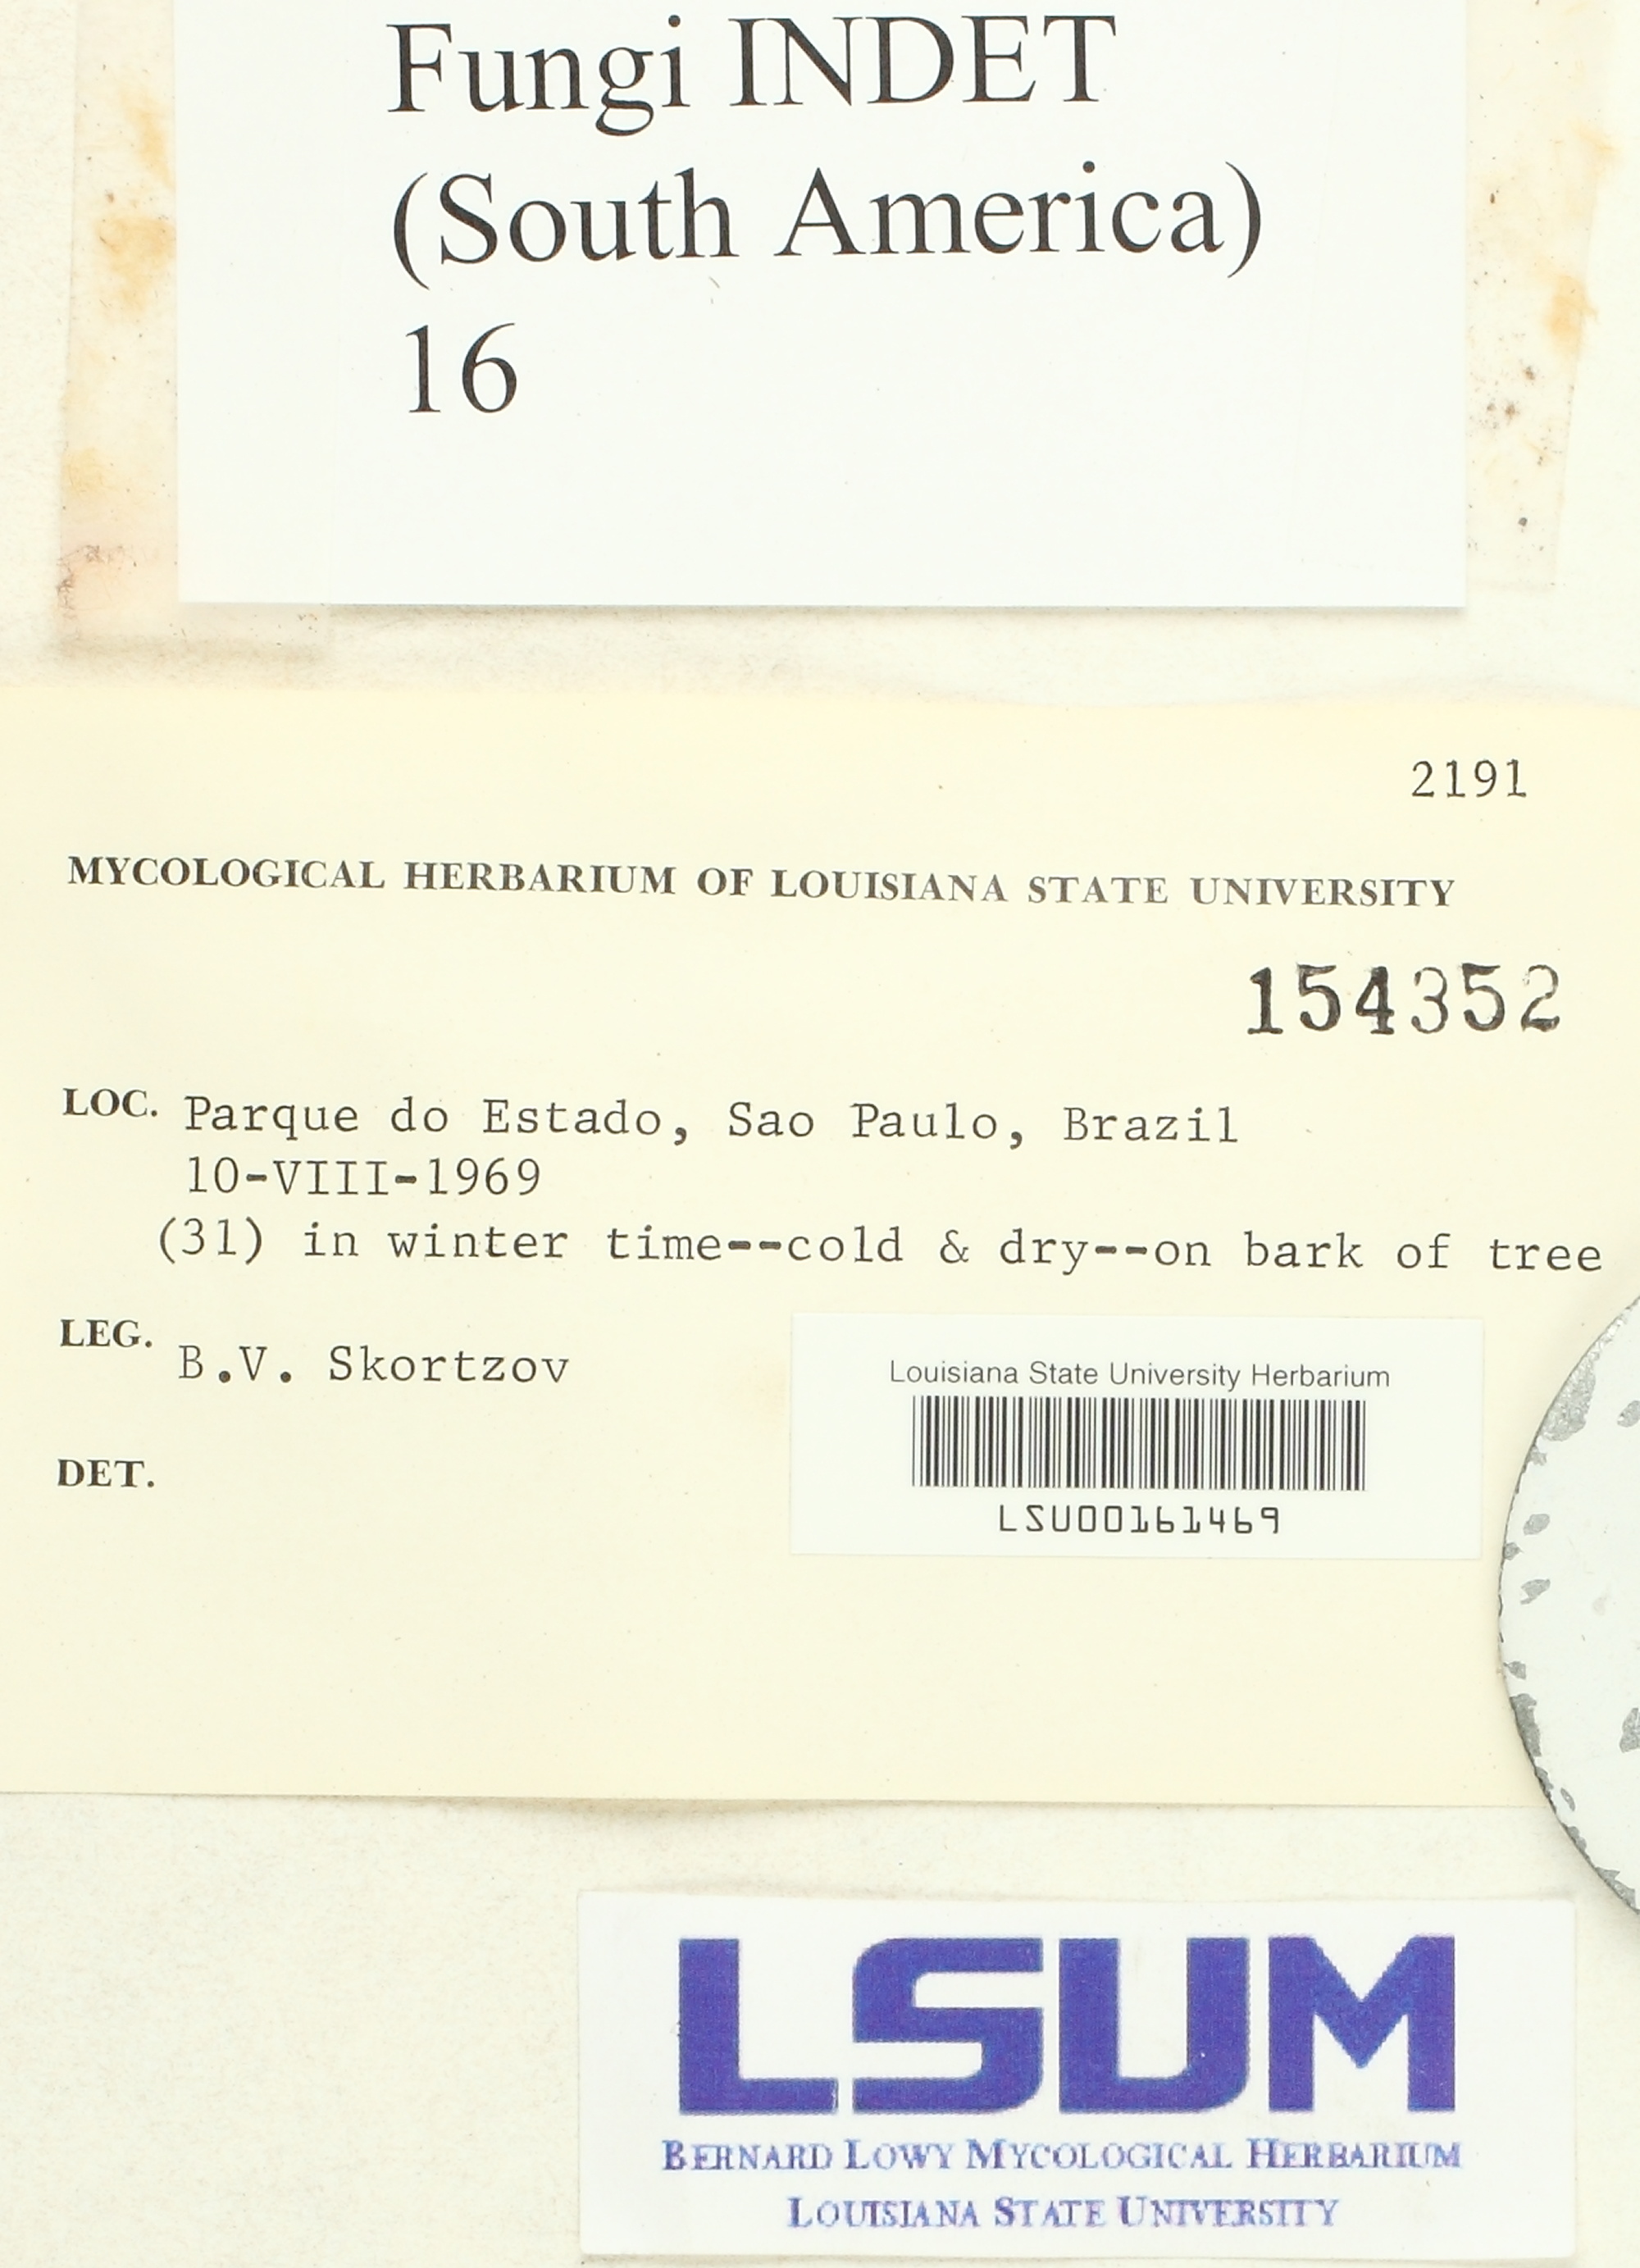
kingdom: Fungi
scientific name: Fungi
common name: Fungi
